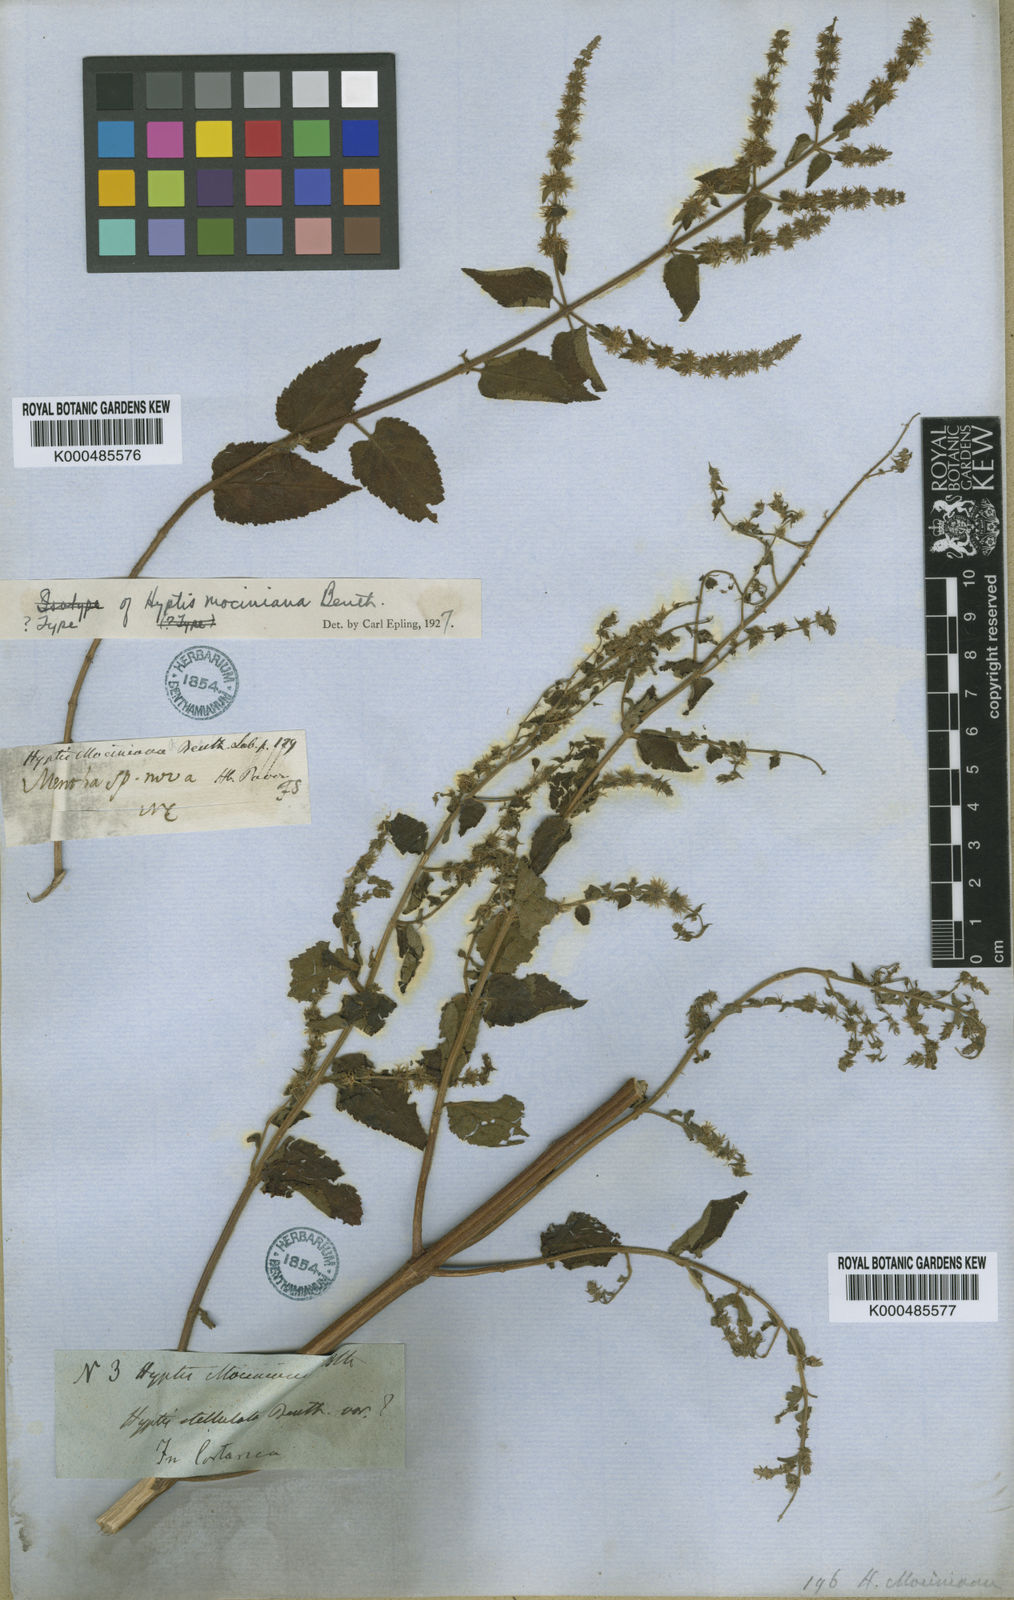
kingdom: Plantae
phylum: Tracheophyta
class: Magnoliopsida
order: Lamiales
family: Lamiaceae
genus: Asterohyptis
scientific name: Asterohyptis
